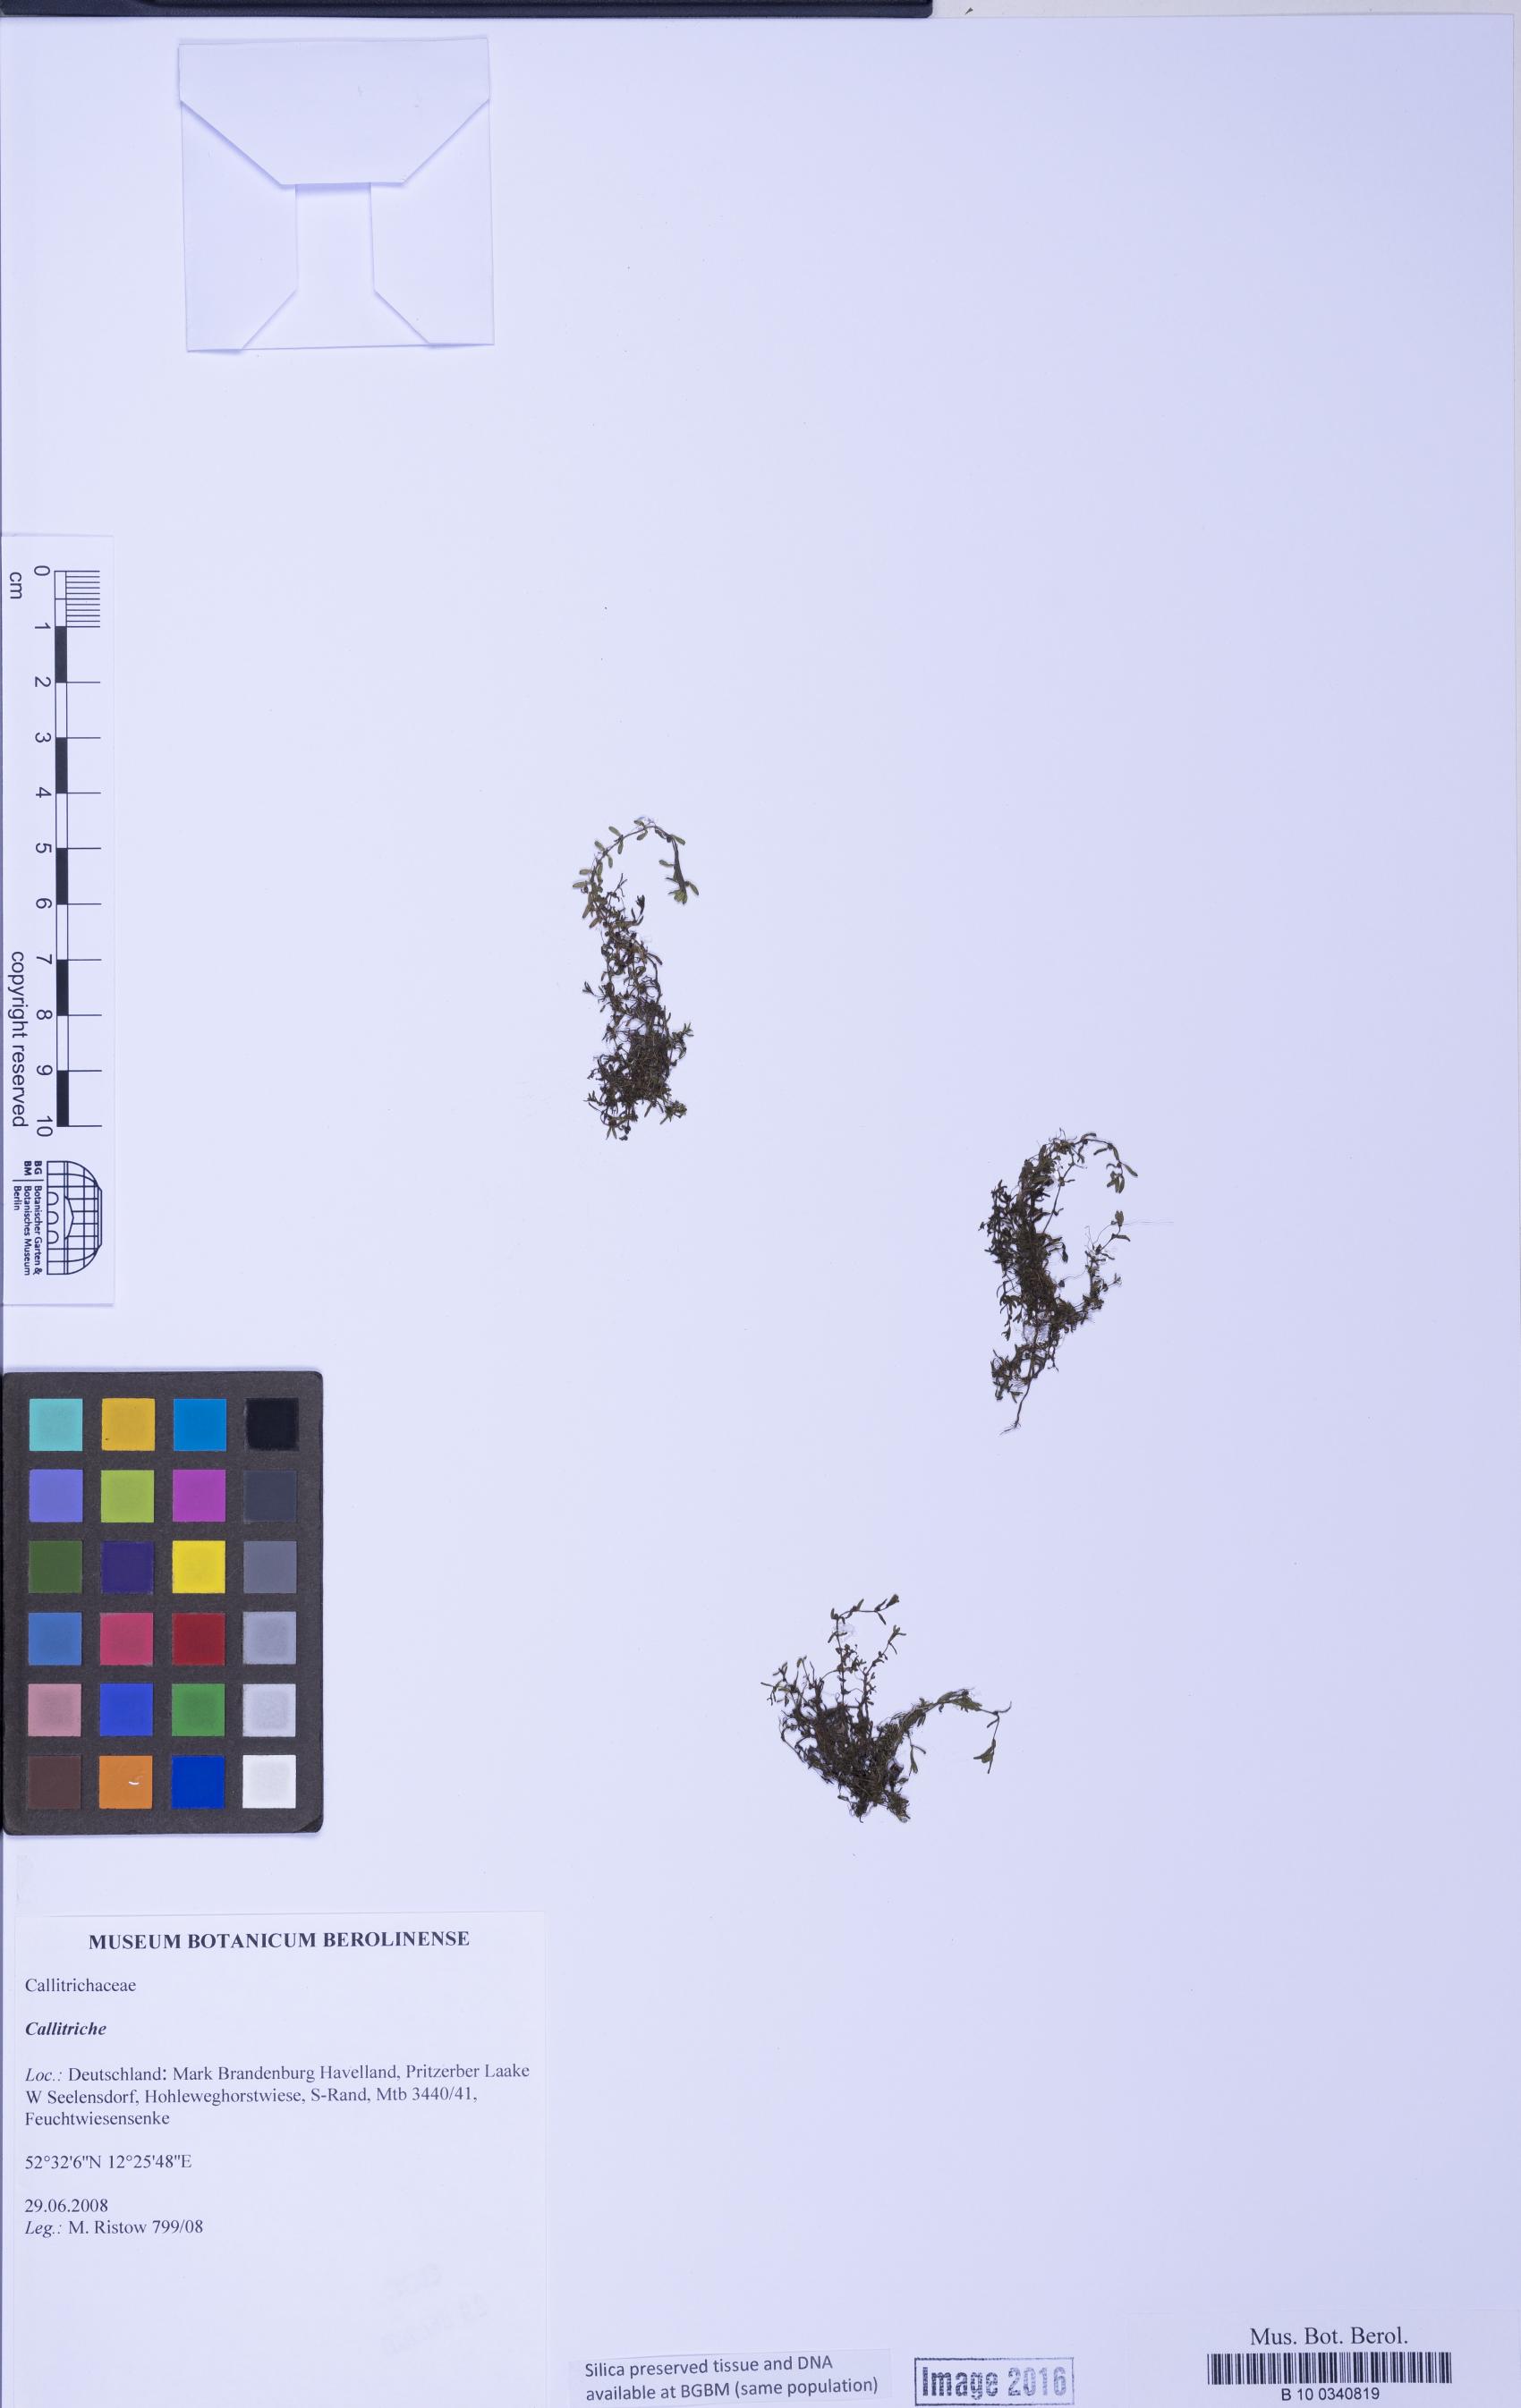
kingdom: Plantae
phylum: Tracheophyta
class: Magnoliopsida
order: Lamiales
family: Plantaginaceae
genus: Callitriche
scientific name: Callitriche
